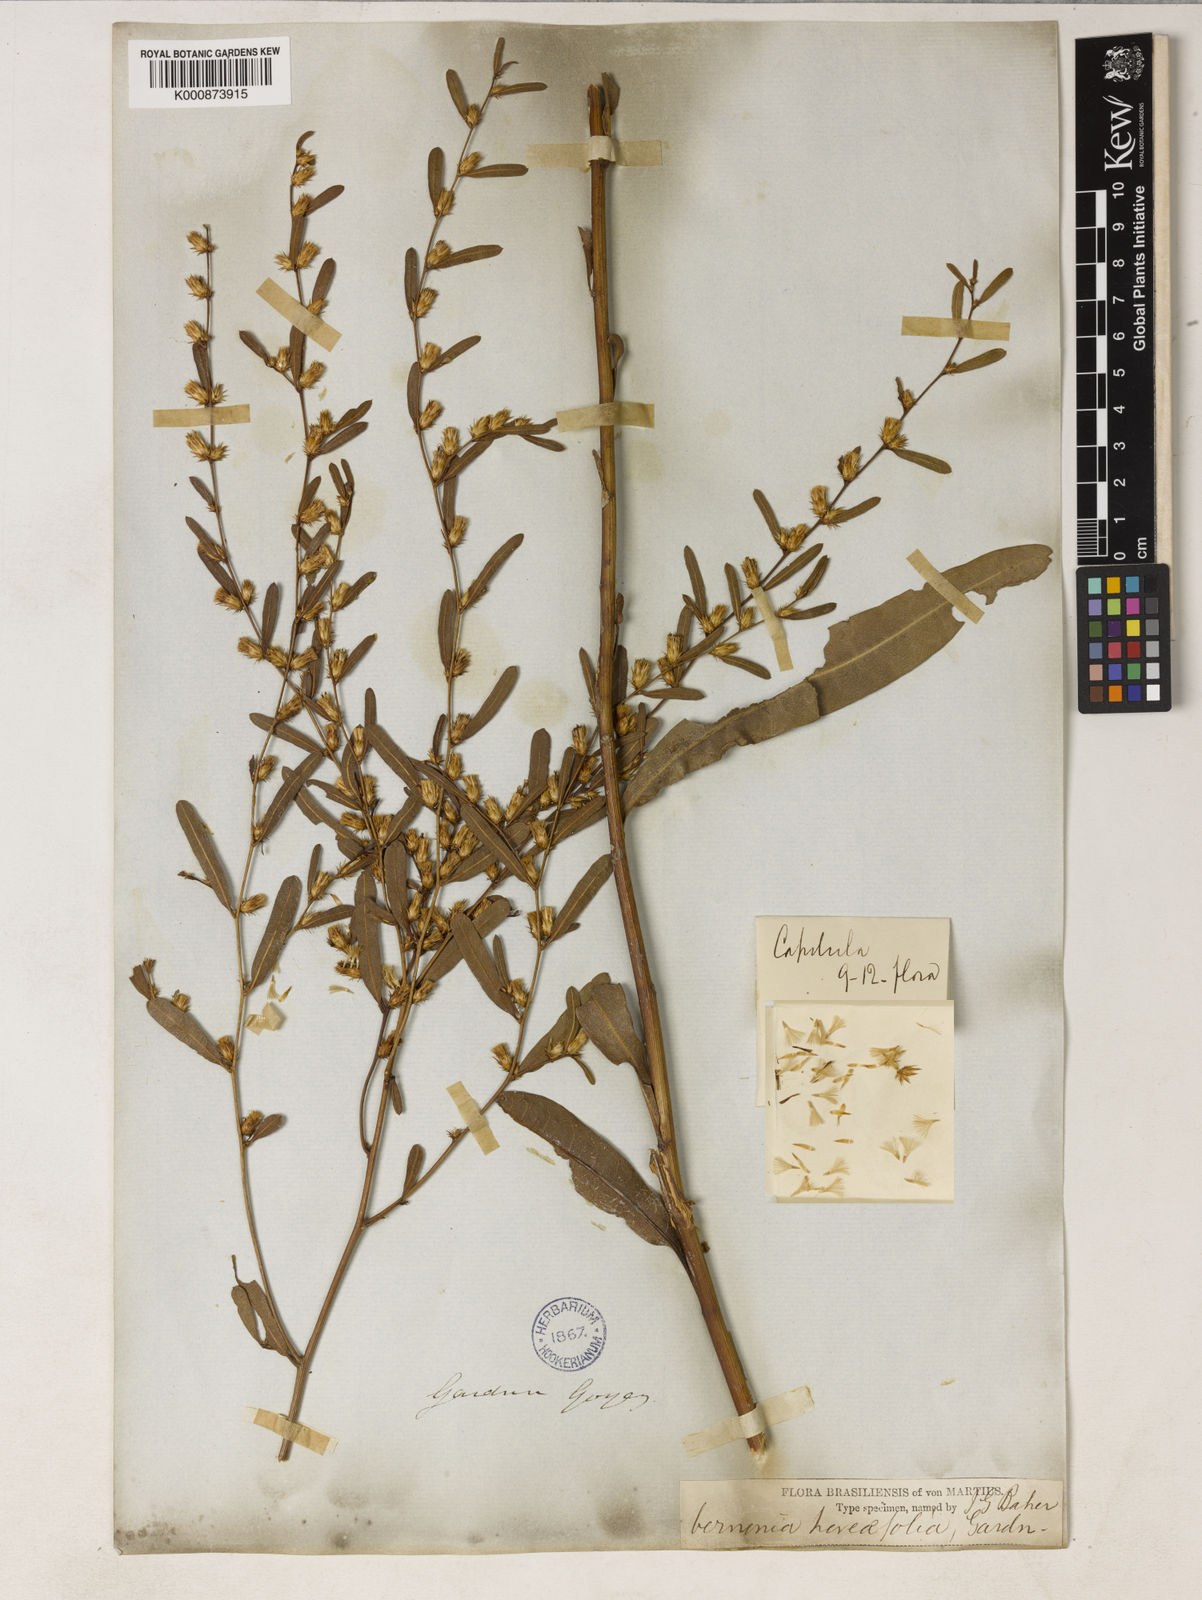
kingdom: Plantae
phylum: Tracheophyta
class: Magnoliopsida
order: Asterales
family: Asteraceae
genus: Lessingianthus
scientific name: Lessingianthus hoveifolius
